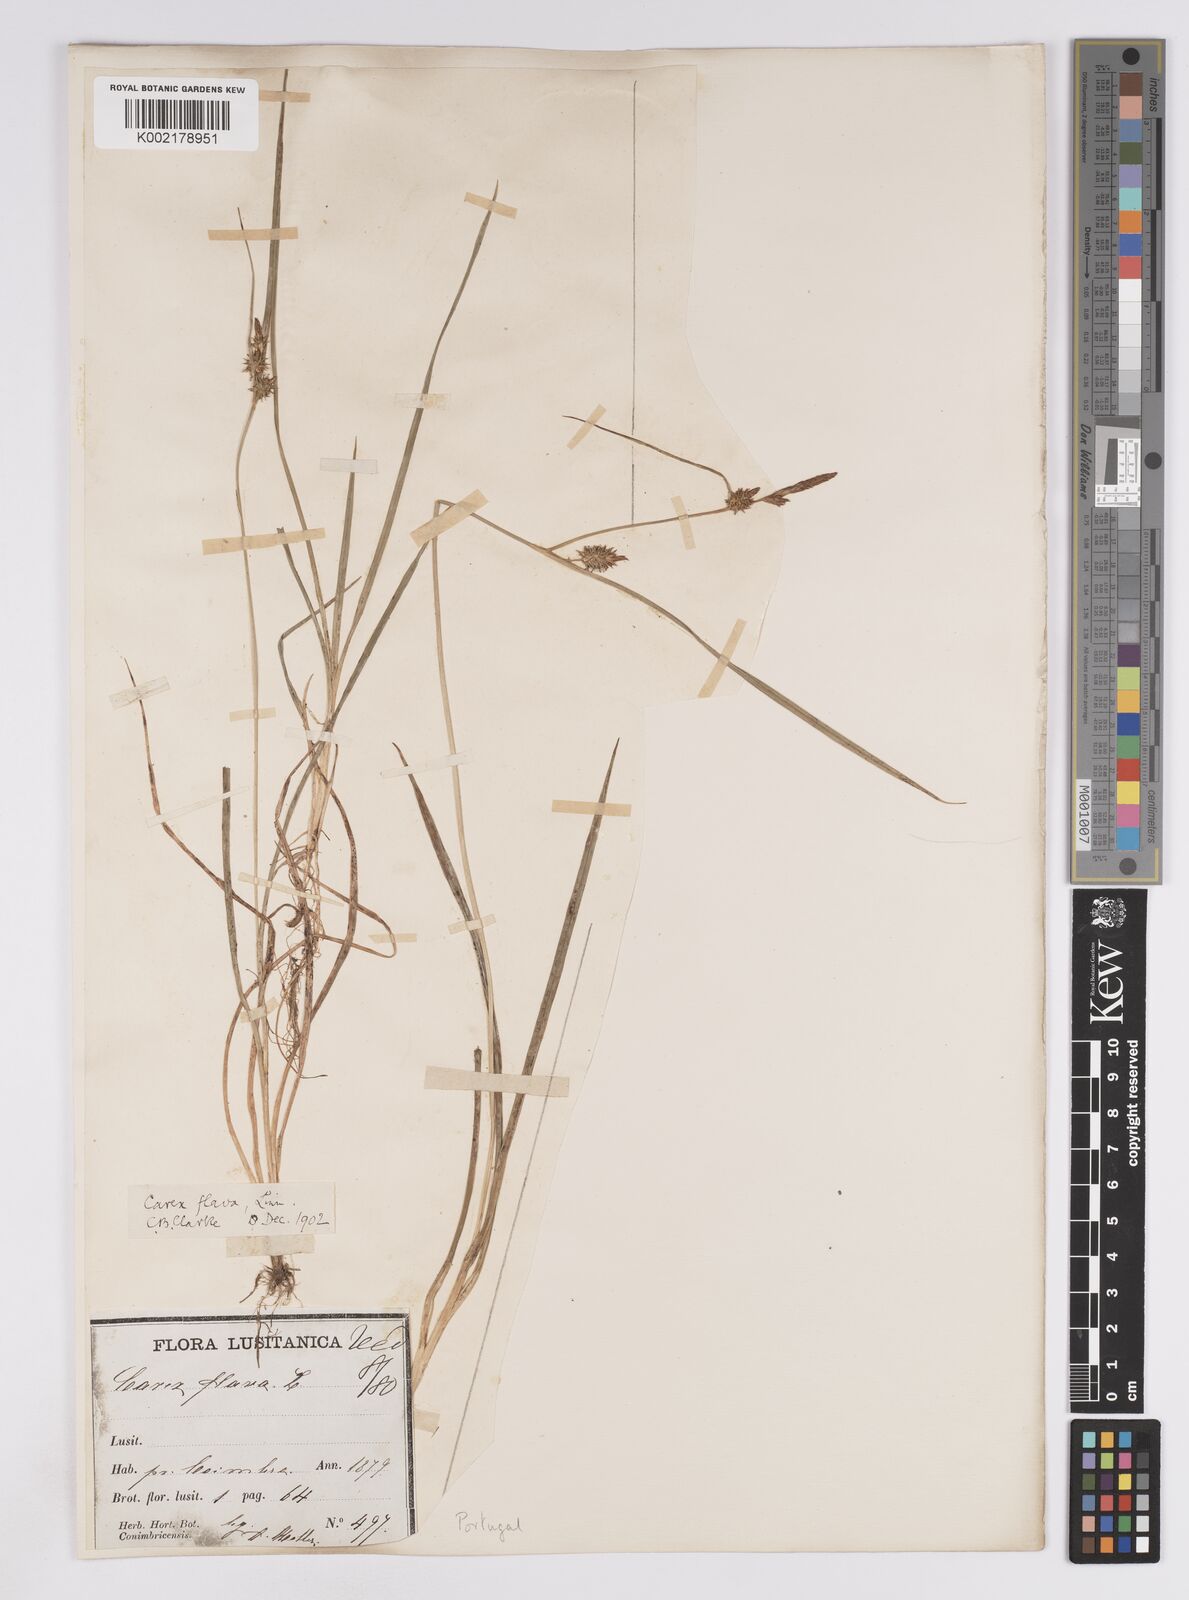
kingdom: Plantae
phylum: Tracheophyta
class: Liliopsida
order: Poales
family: Cyperaceae
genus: Carex
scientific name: Carex lepidocarpa
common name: Long-stalked yellow-sedge
